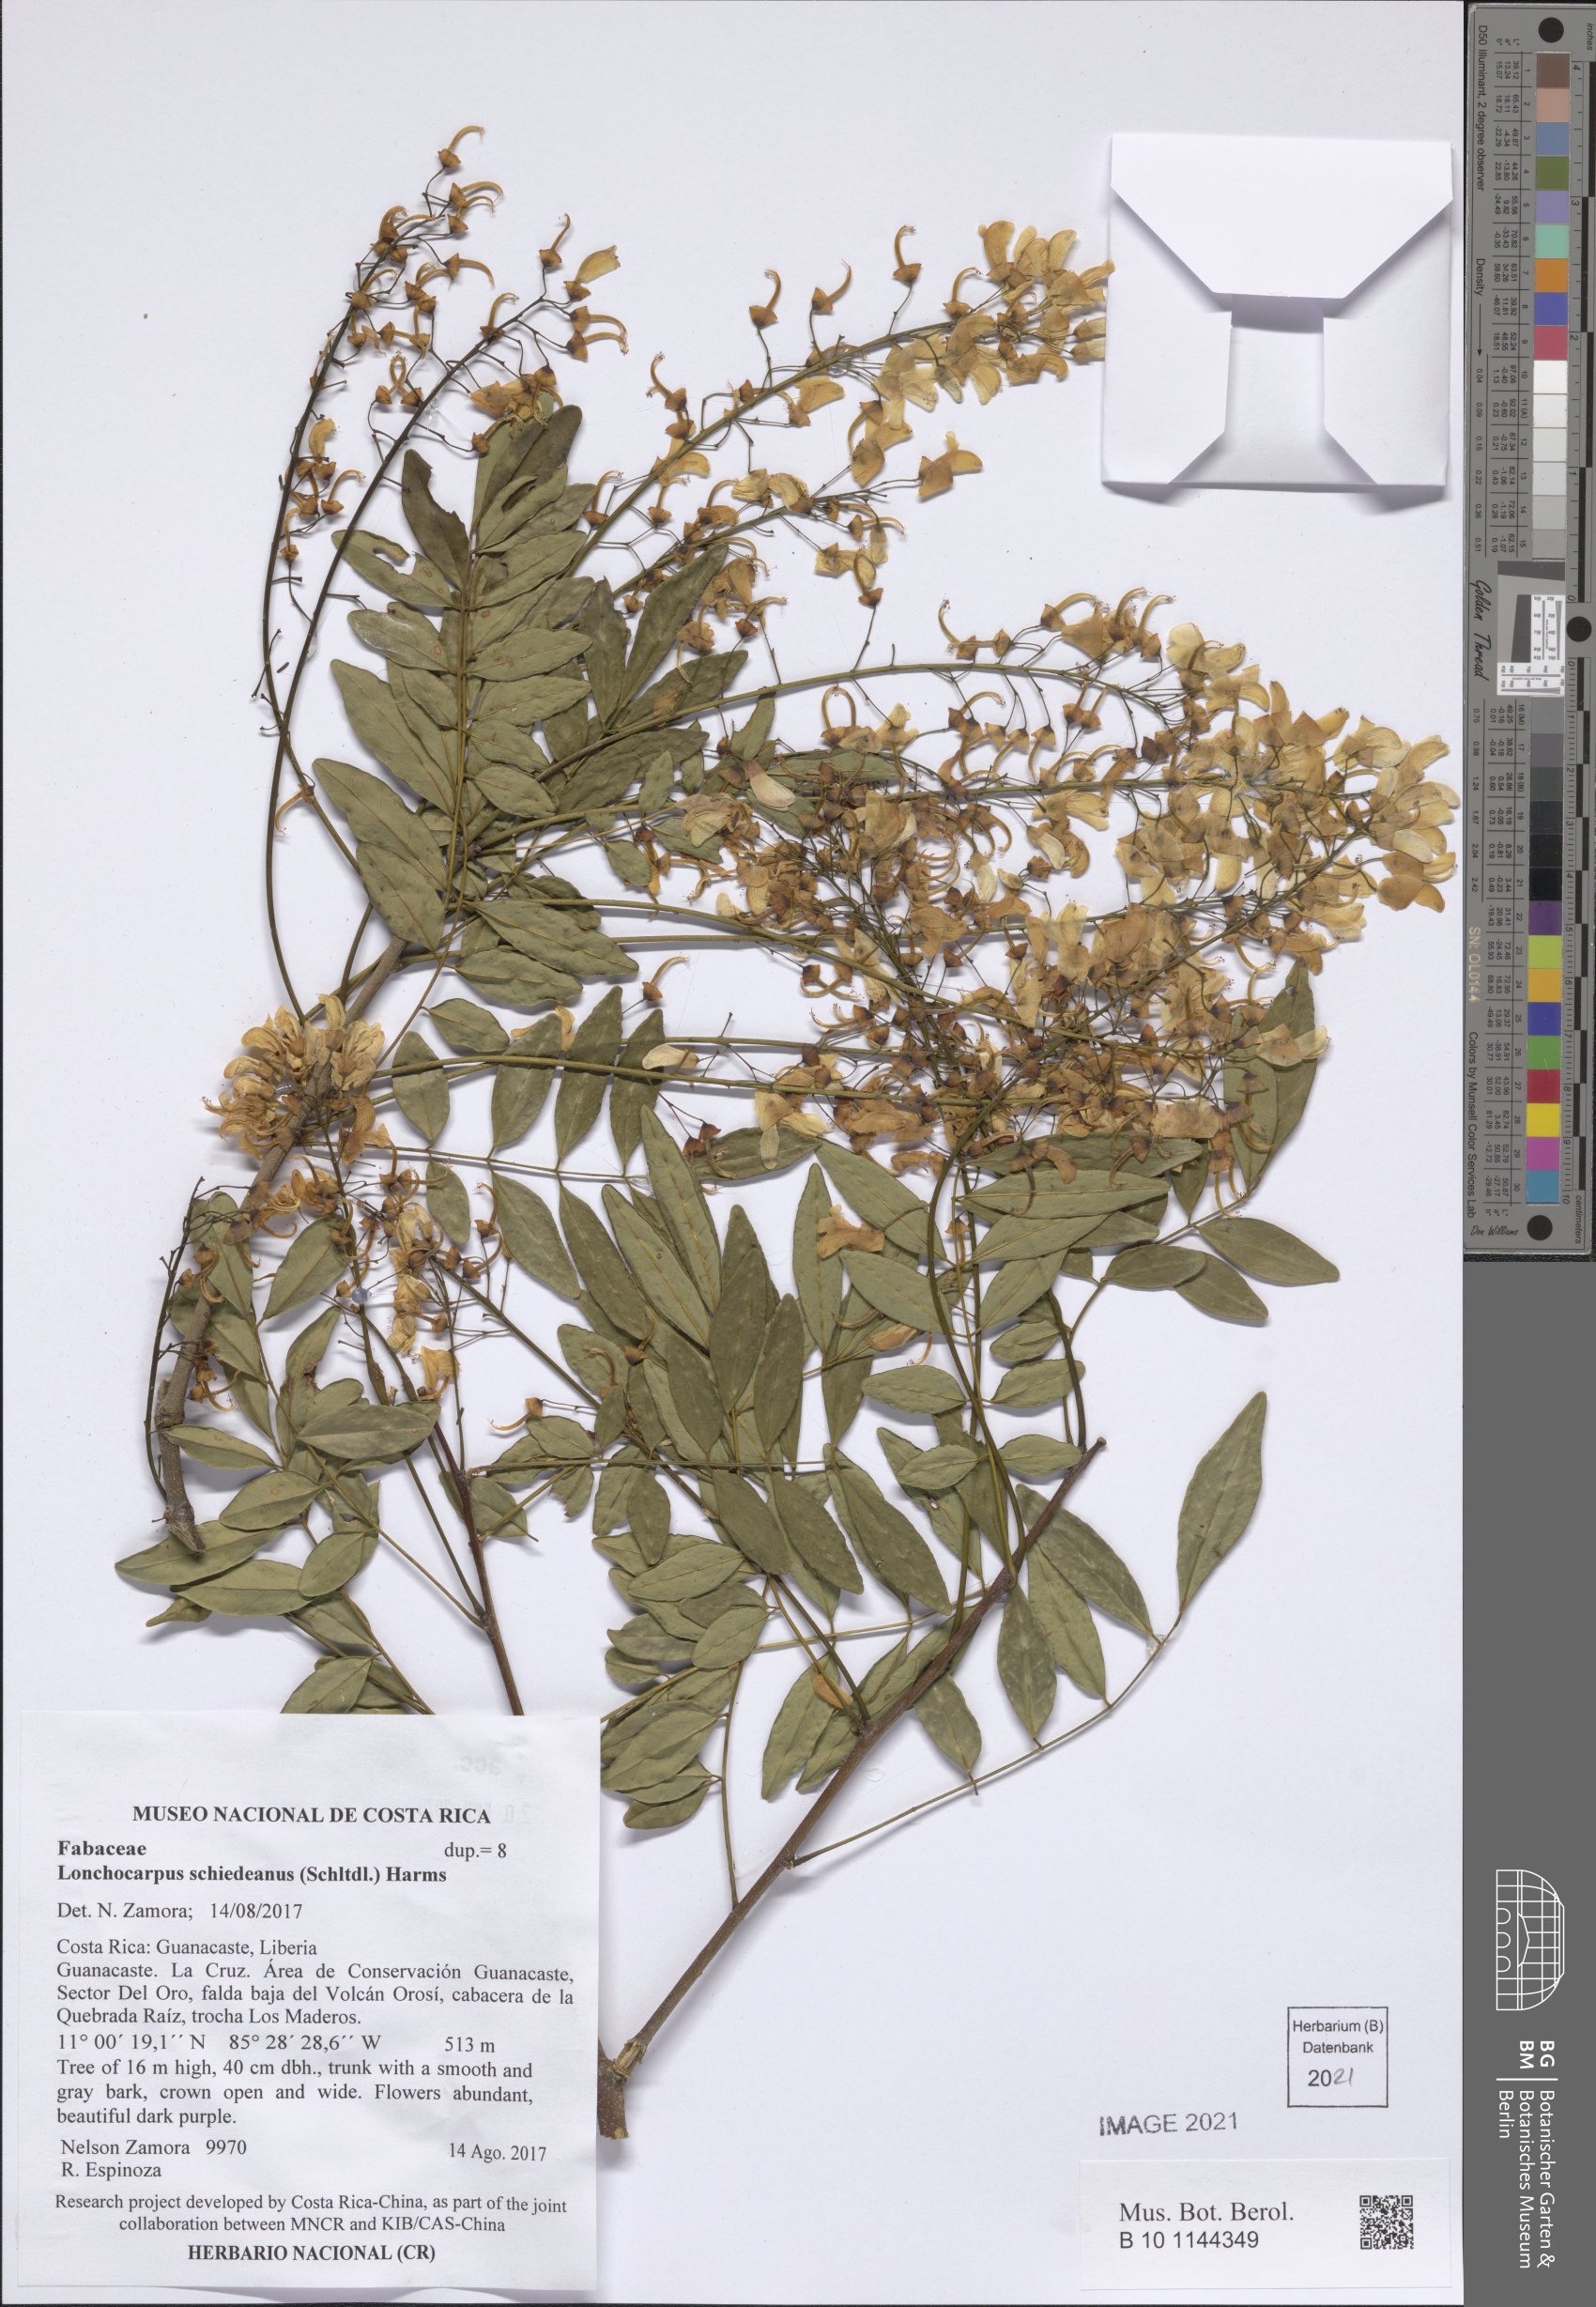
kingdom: Plantae
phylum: Tracheophyta
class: Magnoliopsida
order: Fabales
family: Fabaceae
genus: Lonchocarpus
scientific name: Lonchocarpus schiedeanus
